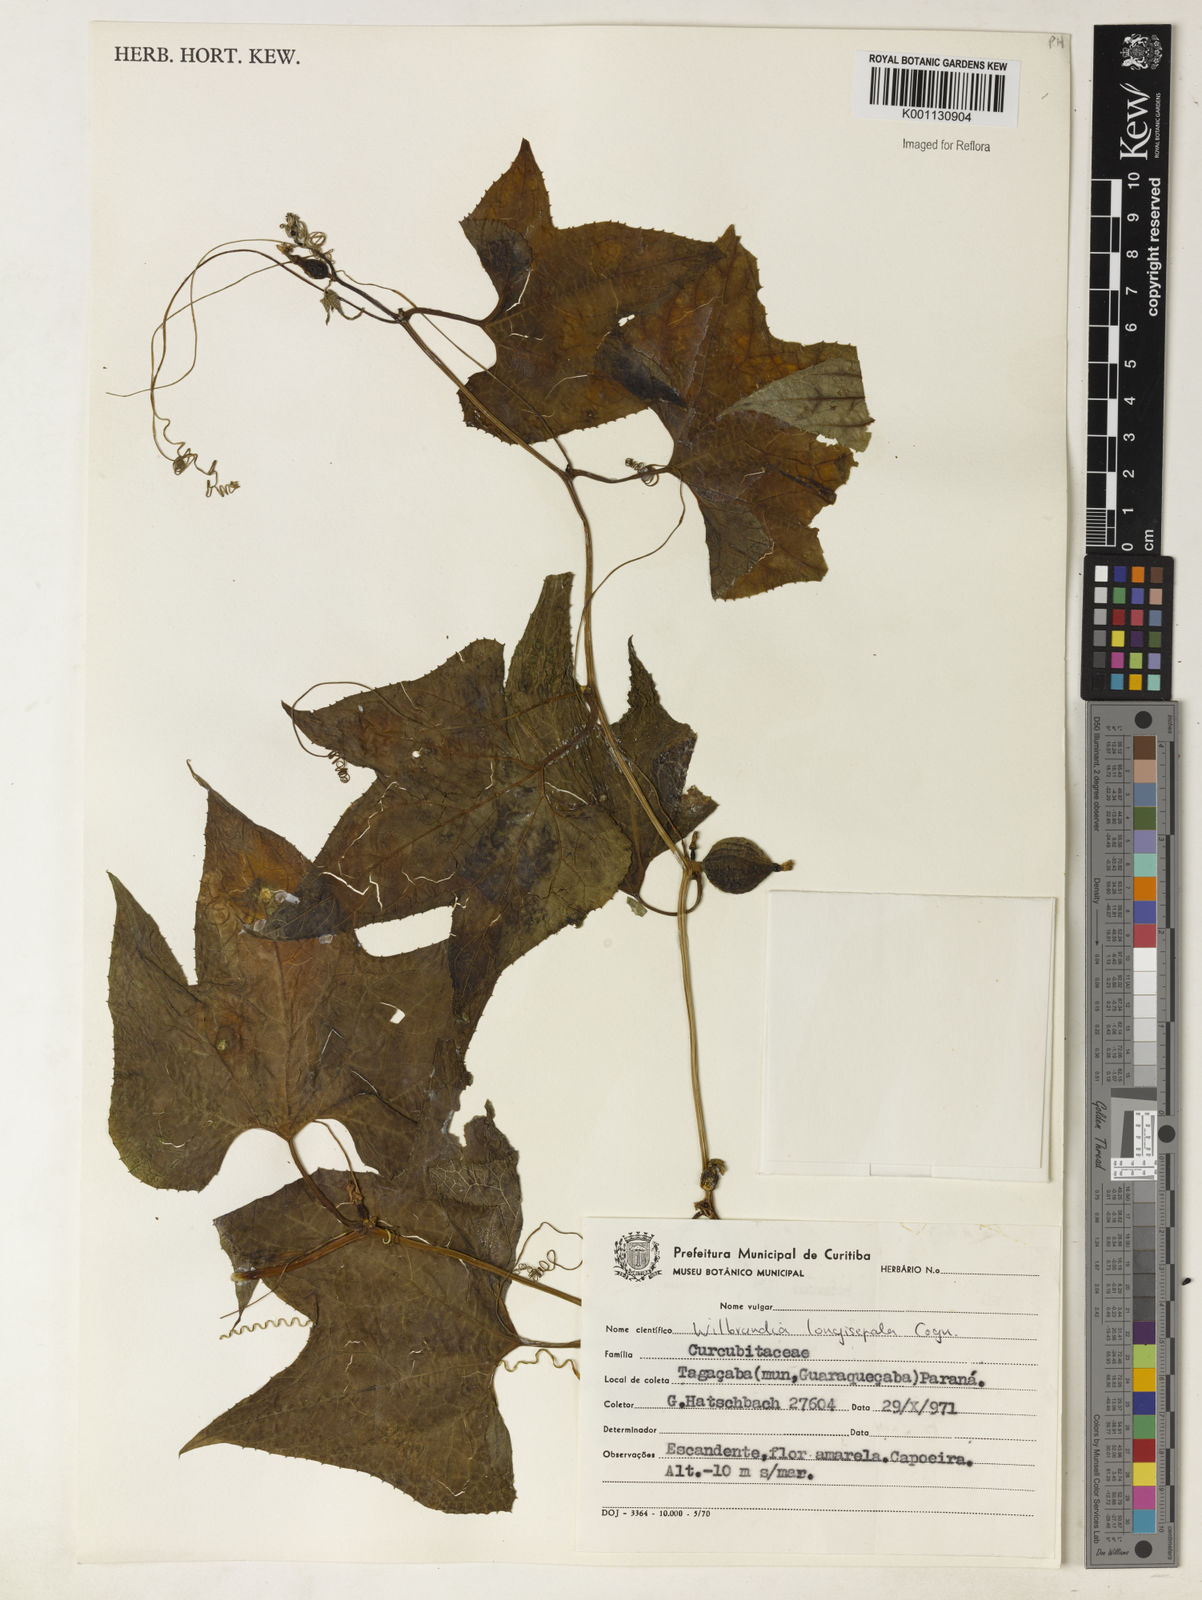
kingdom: Plantae
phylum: Tracheophyta
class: Magnoliopsida
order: Cucurbitales
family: Cucurbitaceae
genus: Wilbrandia
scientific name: Wilbrandia longisepala
